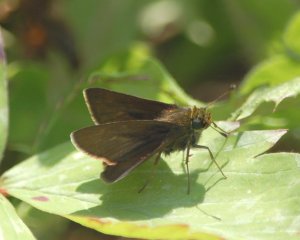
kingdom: Animalia
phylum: Arthropoda
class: Insecta
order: Lepidoptera
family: Hesperiidae
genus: Euphyes
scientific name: Euphyes vestris
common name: Dun Skipper
